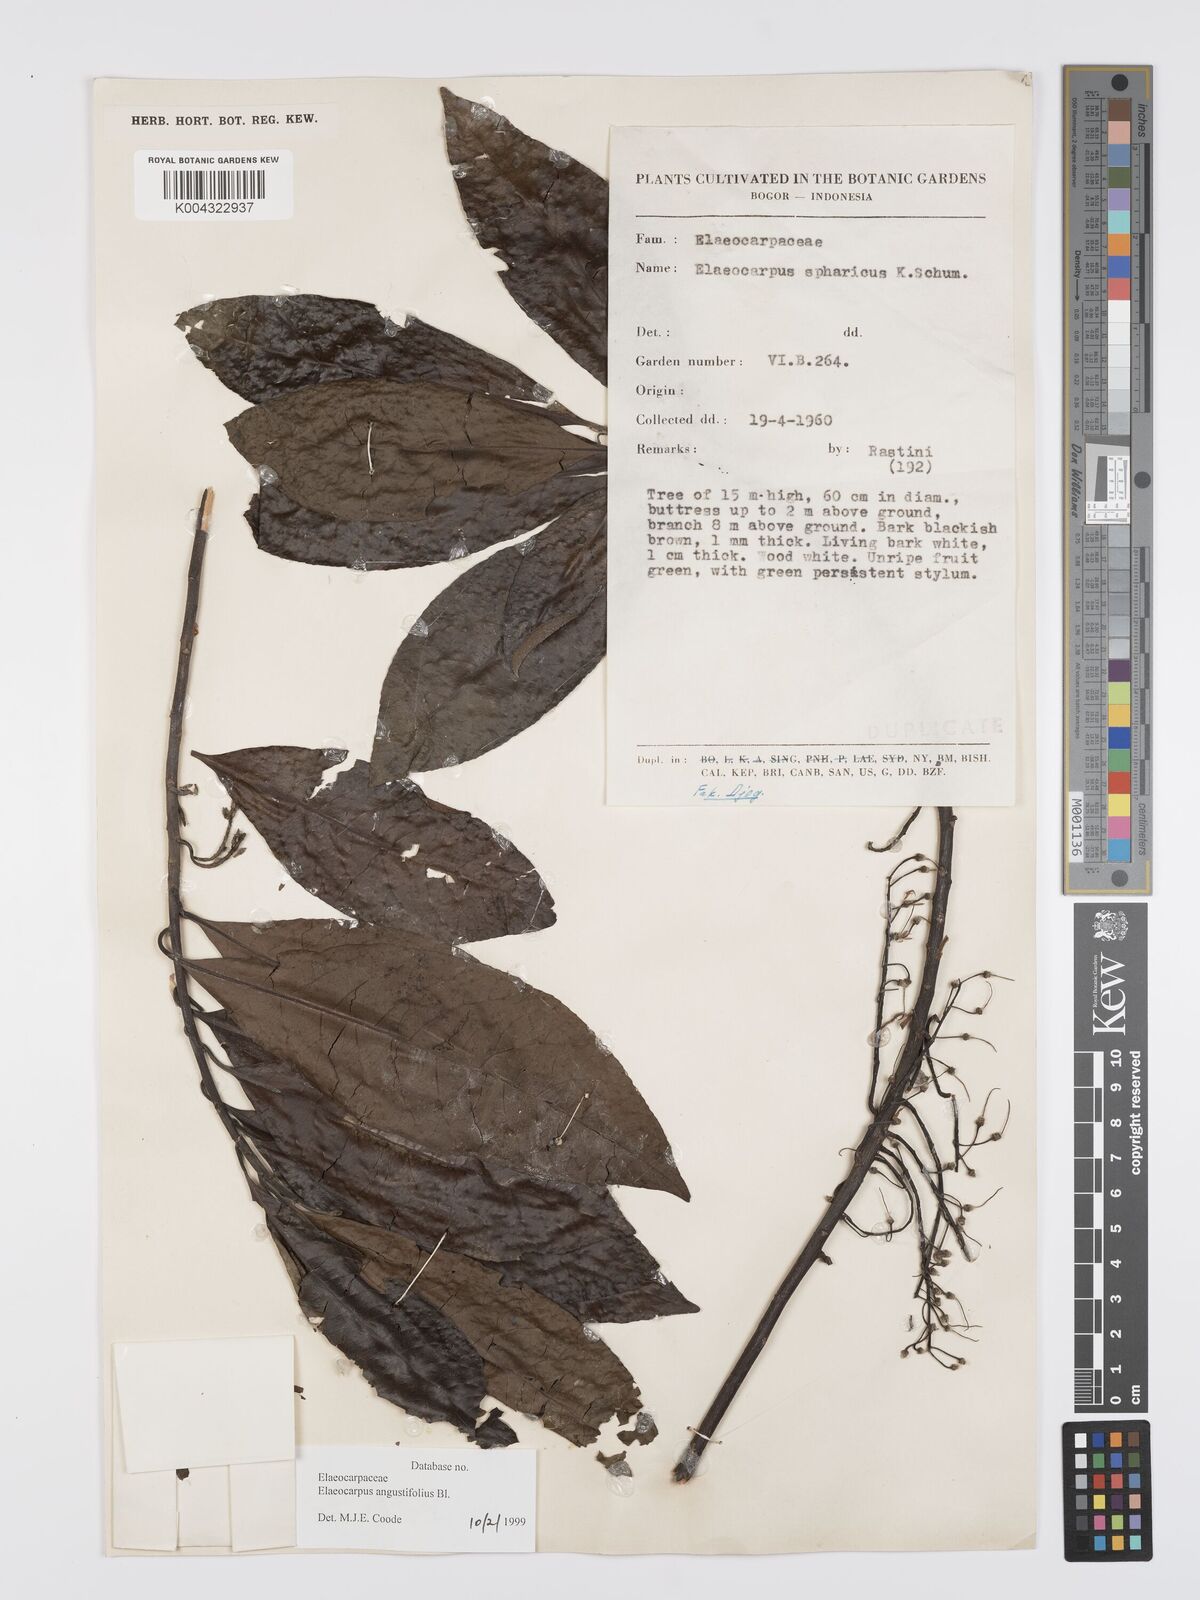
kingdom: Plantae
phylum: Tracheophyta
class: Magnoliopsida
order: Oxalidales
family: Elaeocarpaceae
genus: Elaeocarpus
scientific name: Elaeocarpus sphaericus
